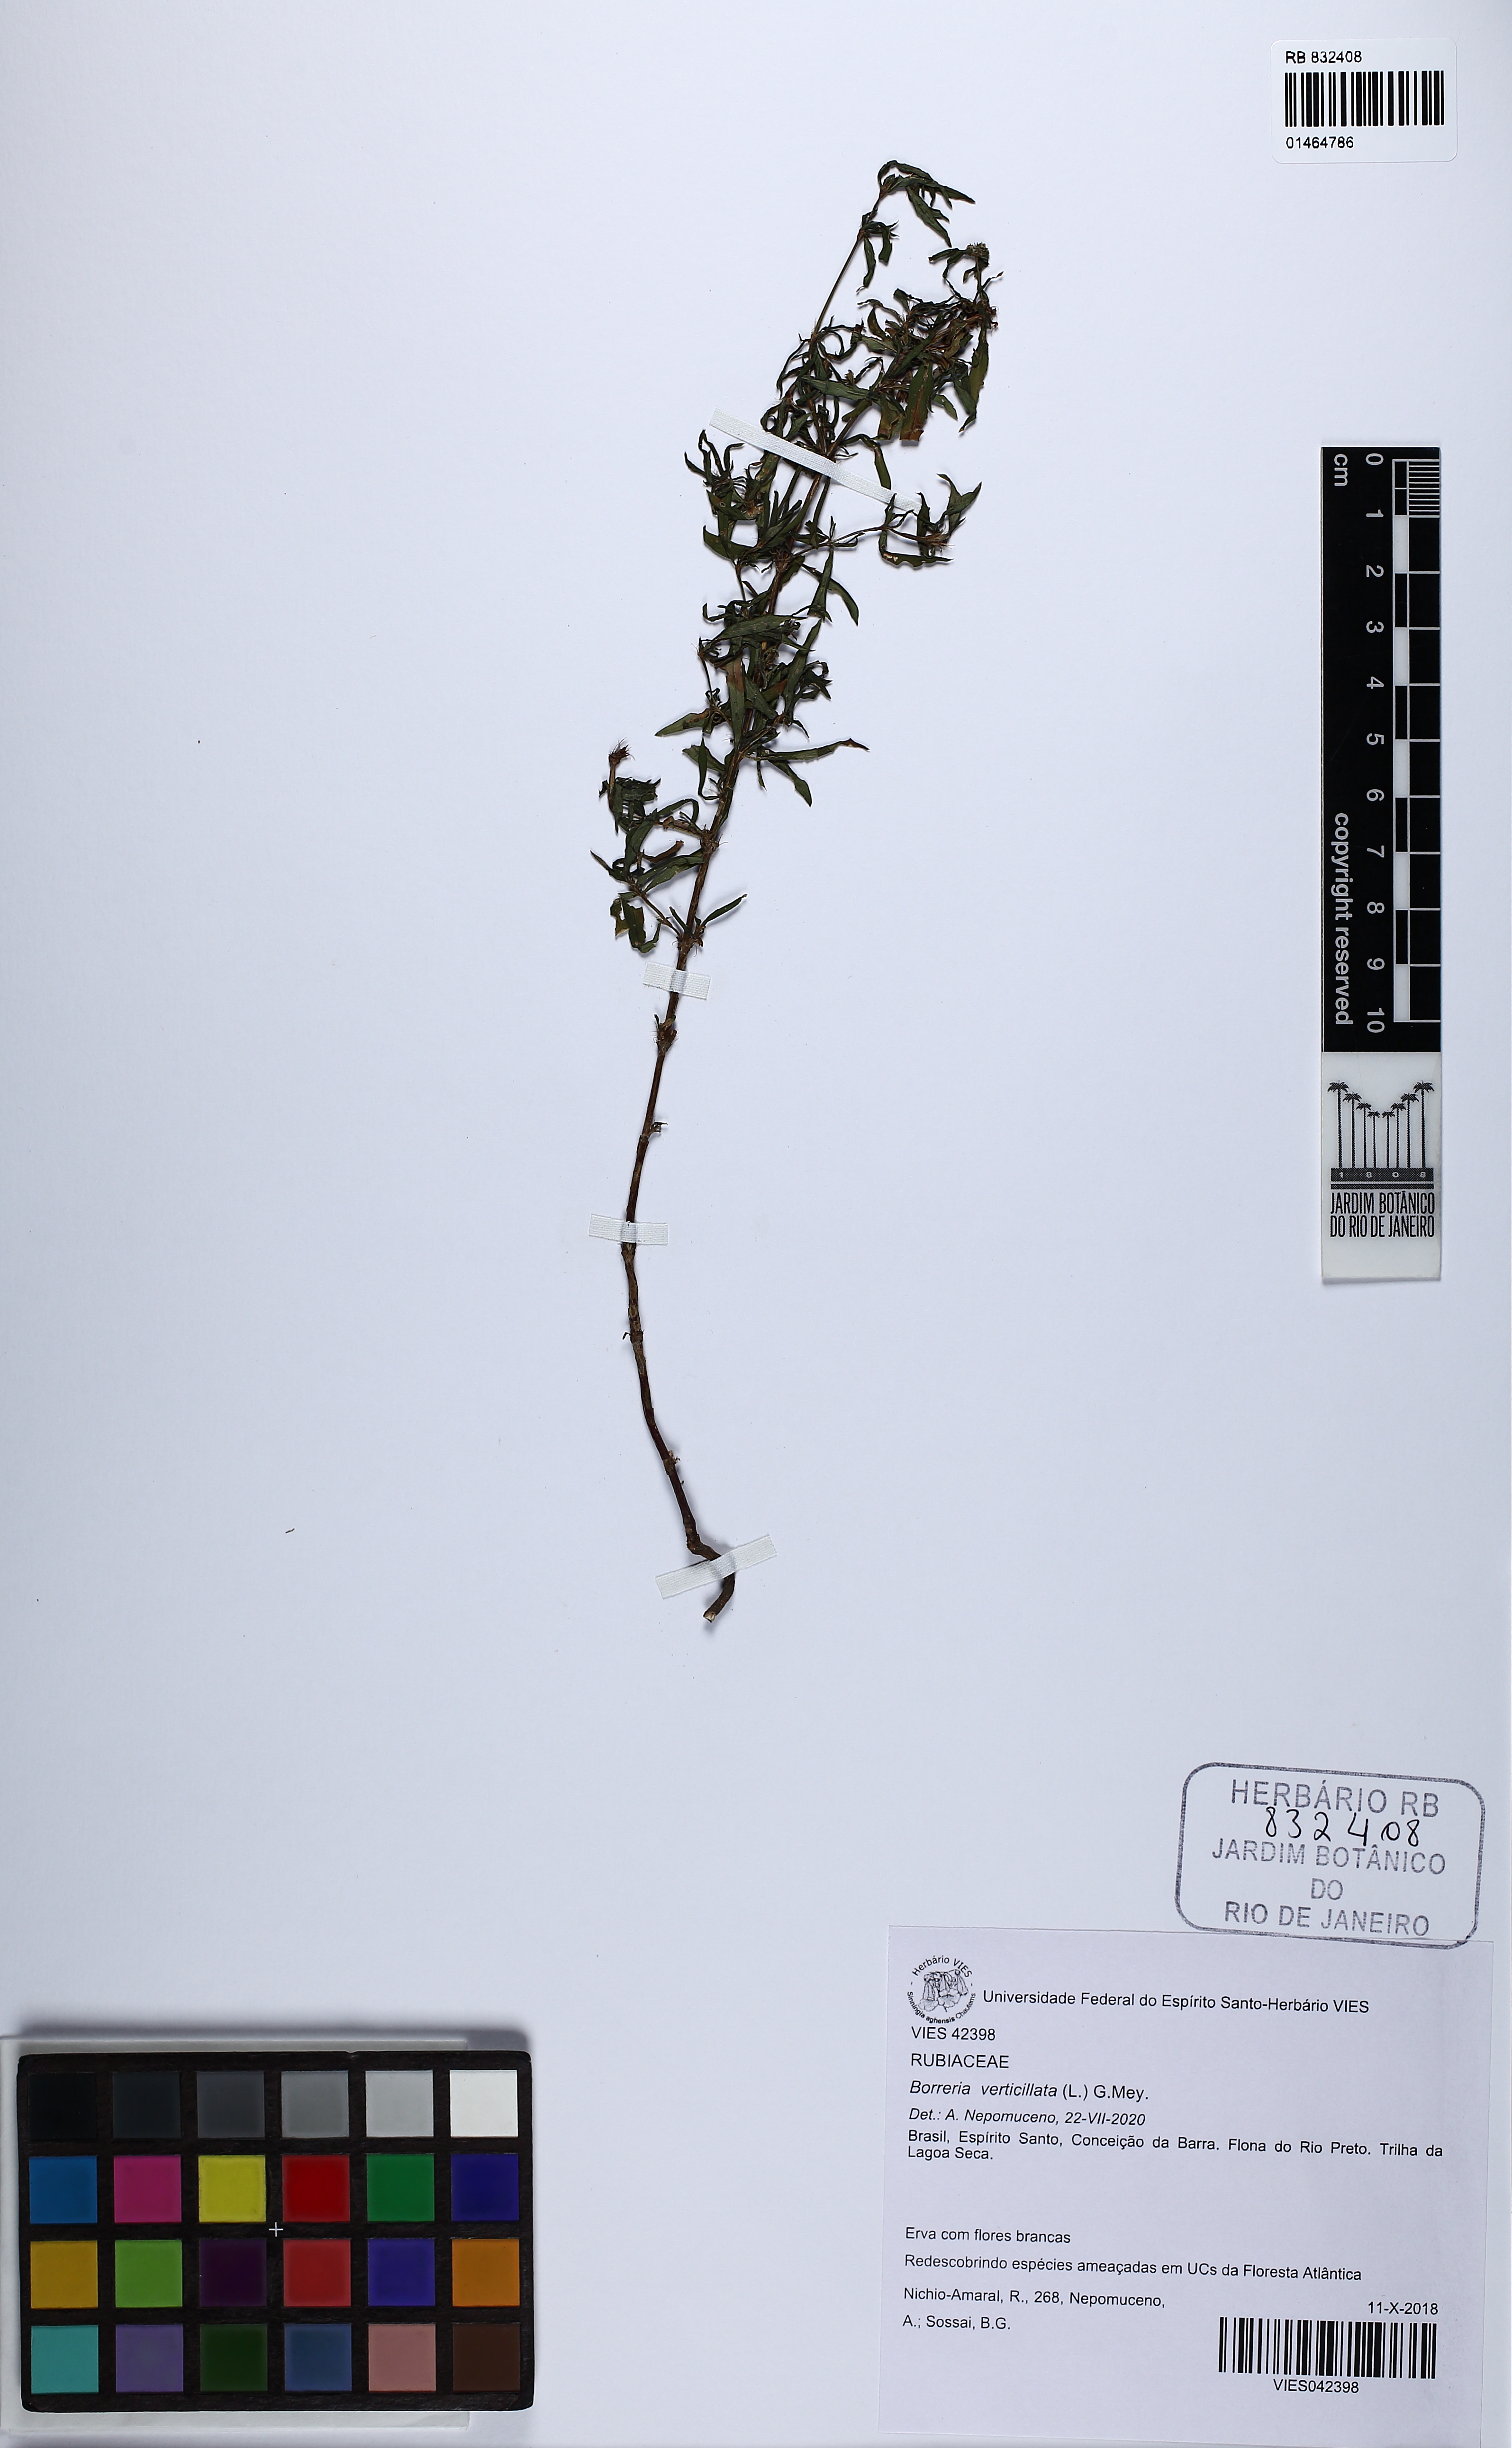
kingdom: Plantae
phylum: Tracheophyta
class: Magnoliopsida
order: Gentianales
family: Rubiaceae
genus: Spermacoce
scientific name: Spermacoce verticillata
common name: Shrubby false buttonweed
